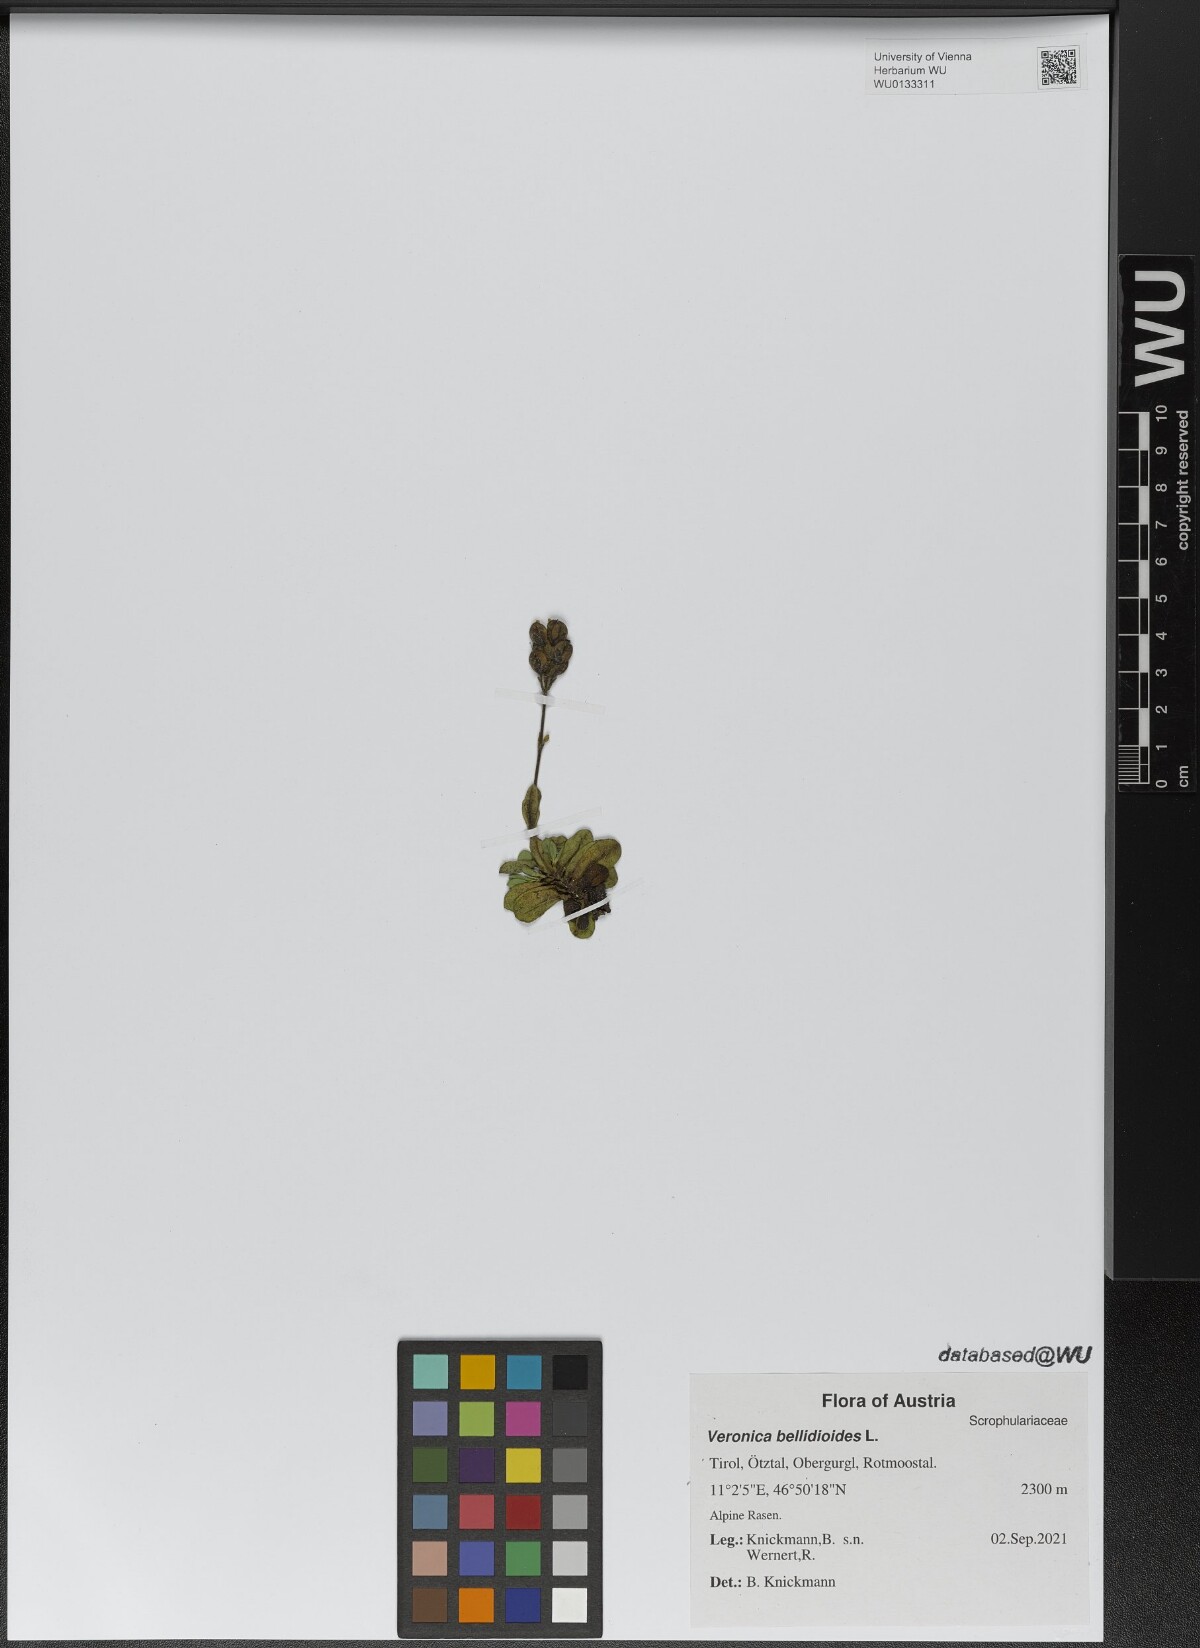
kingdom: Plantae
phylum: Tracheophyta
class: Magnoliopsida
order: Lamiales
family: Plantaginaceae
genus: Veronica
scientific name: Veronica bellidioides
